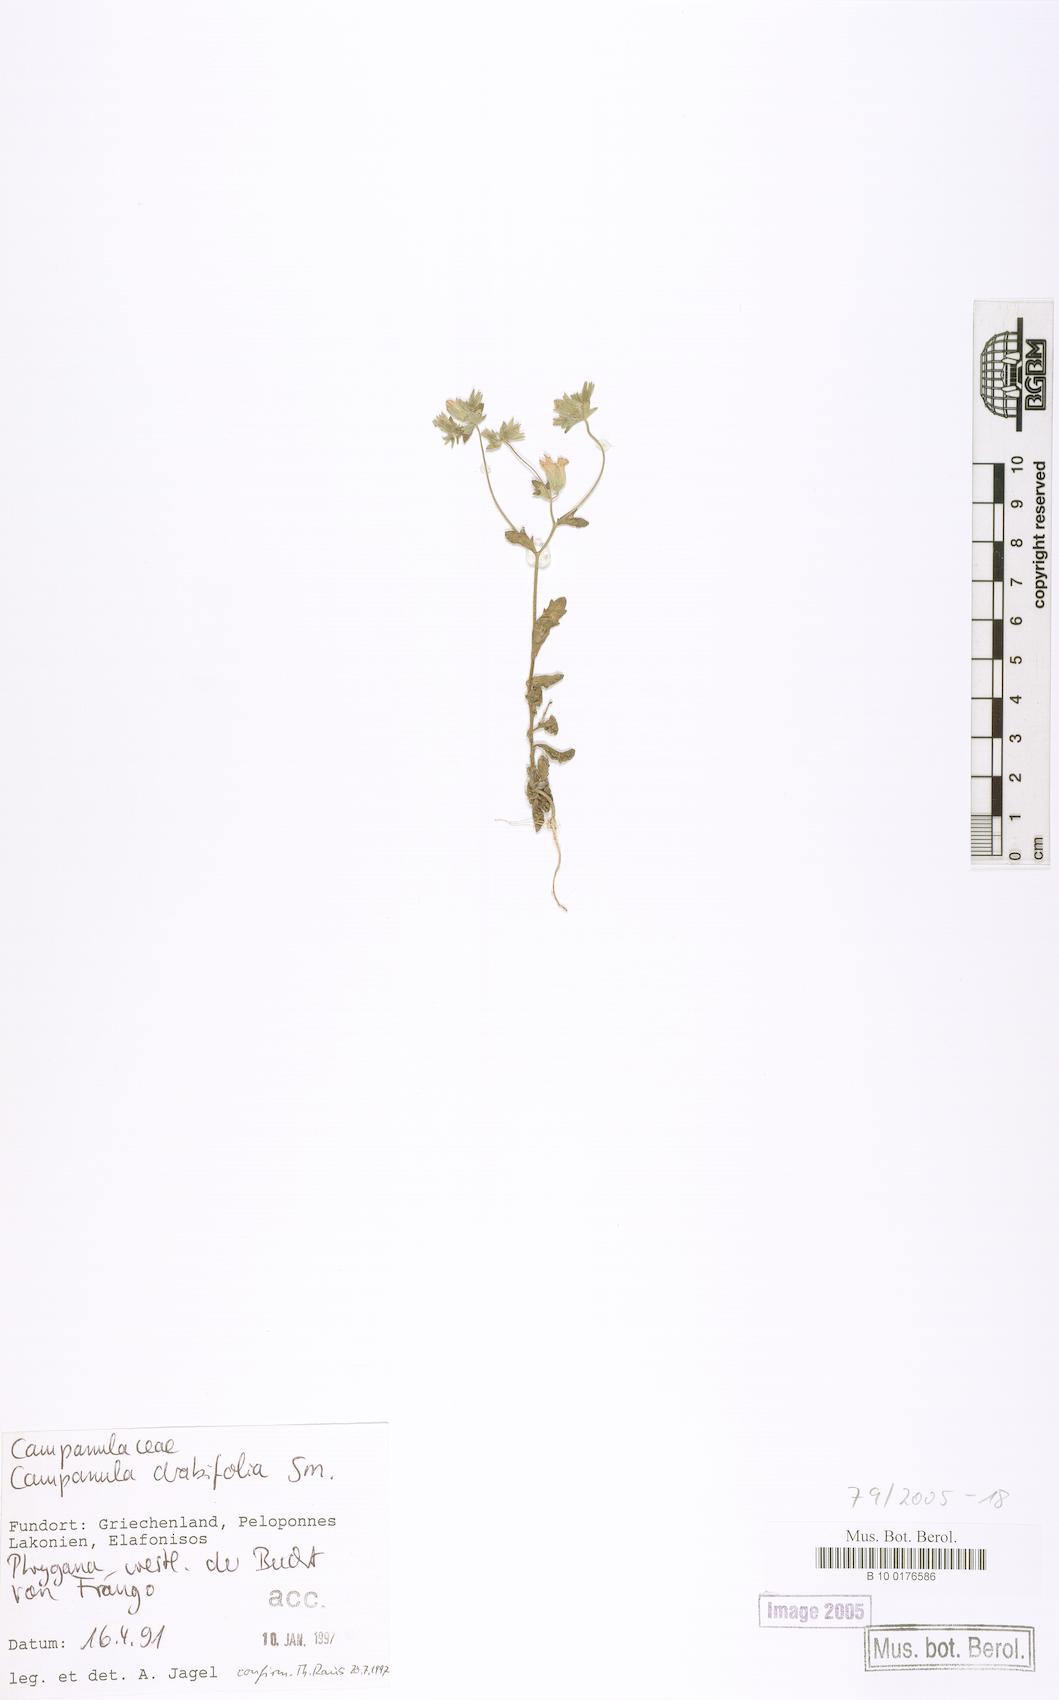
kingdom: Plantae
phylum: Tracheophyta
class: Magnoliopsida
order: Asterales
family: Campanulaceae
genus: Campanula
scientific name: Campanula drabifolia
